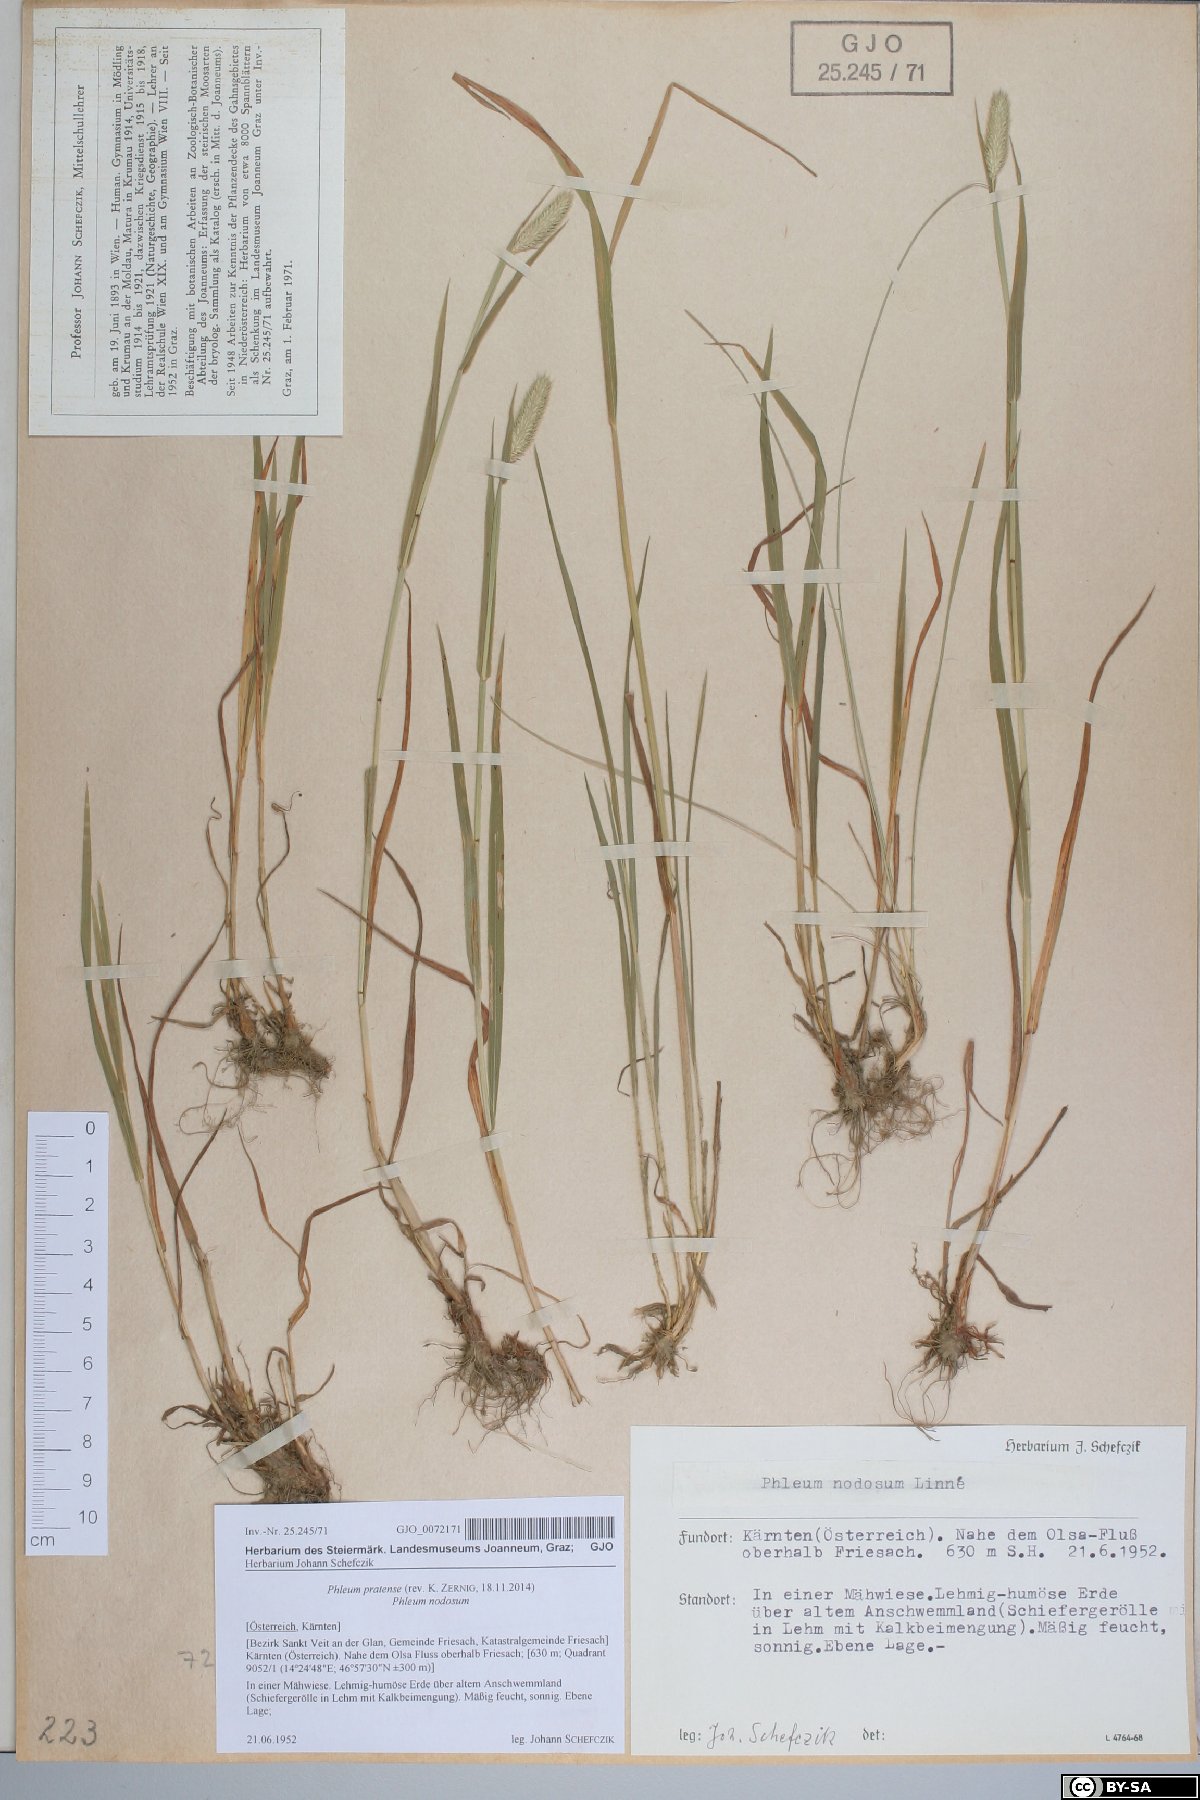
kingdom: Plantae
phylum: Tracheophyta
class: Liliopsida
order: Poales
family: Poaceae
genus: Phleum
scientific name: Phleum pratense
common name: Timothy grass
